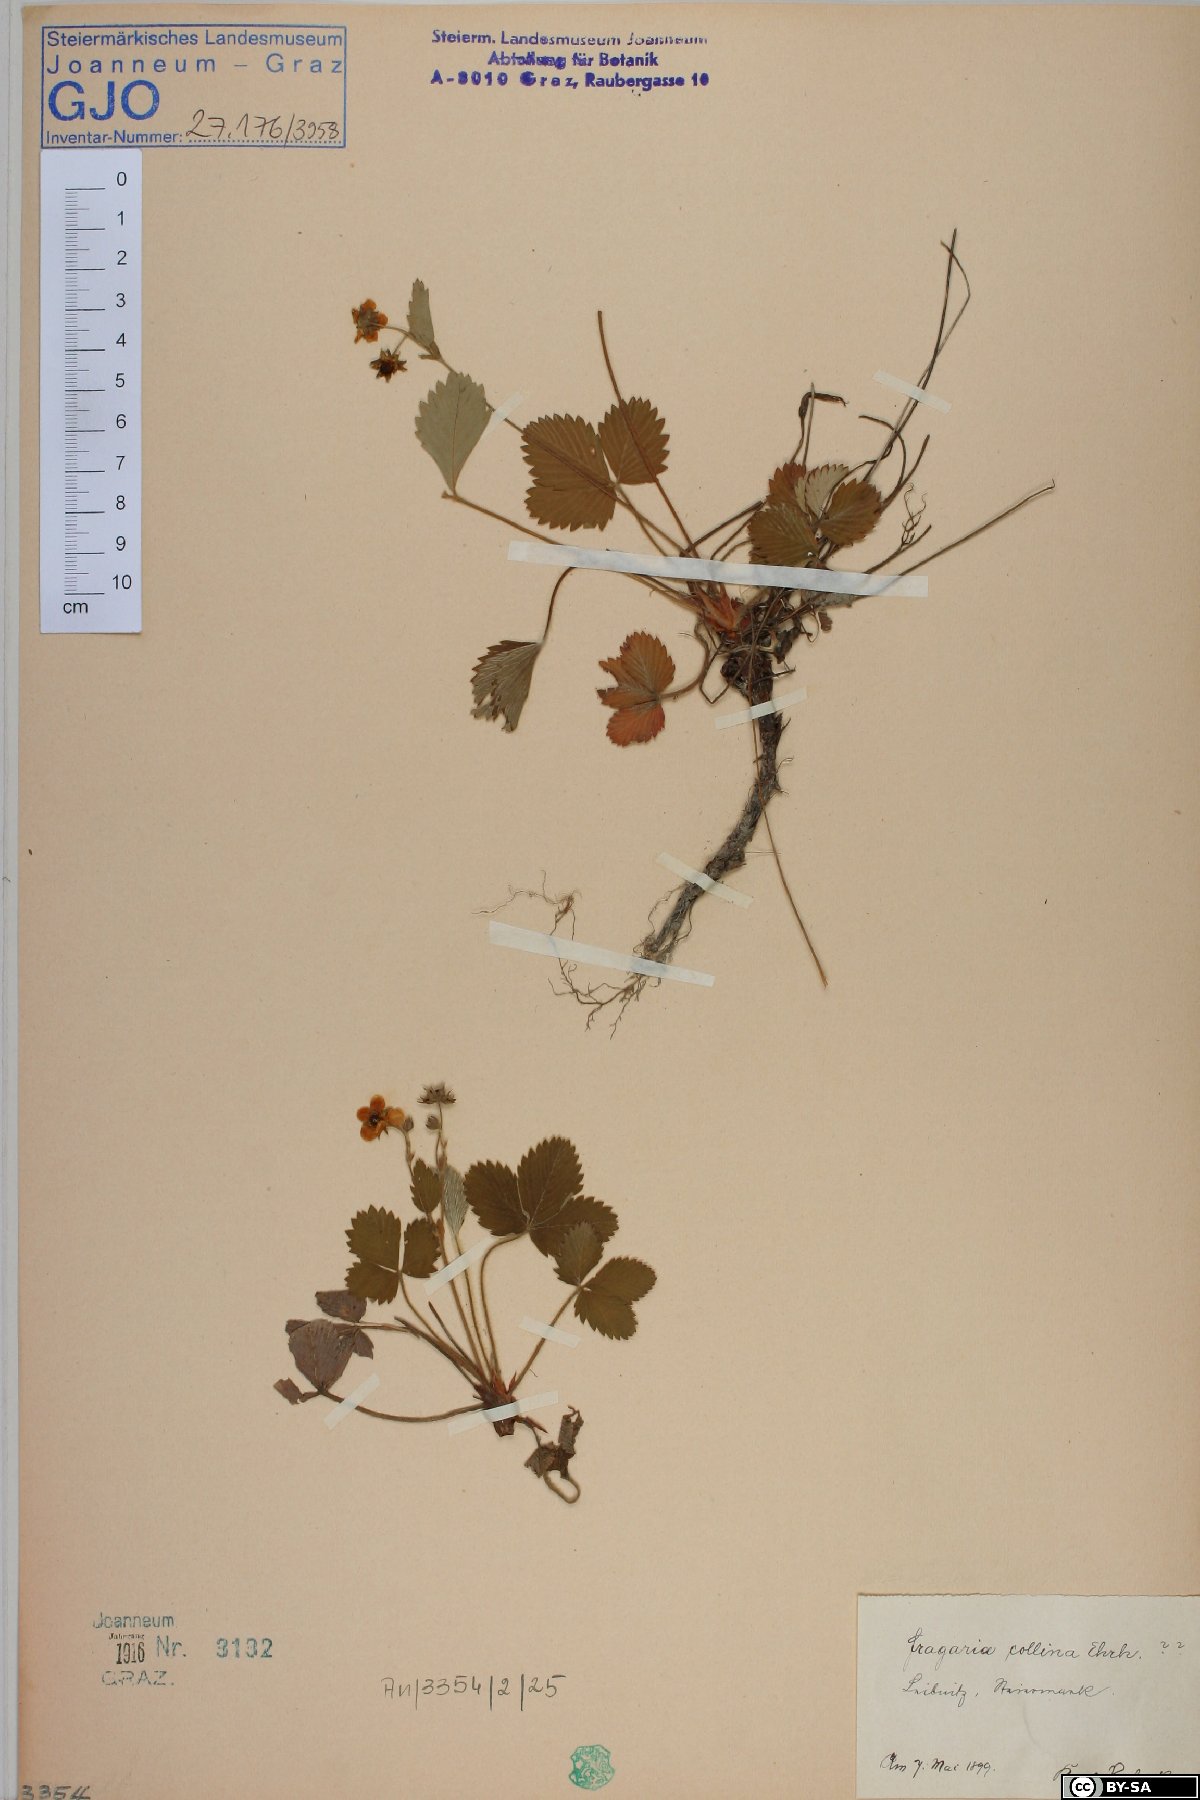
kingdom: Plantae
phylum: Tracheophyta
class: Magnoliopsida
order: Rosales
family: Rosaceae
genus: Fragaria
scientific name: Fragaria viridis
